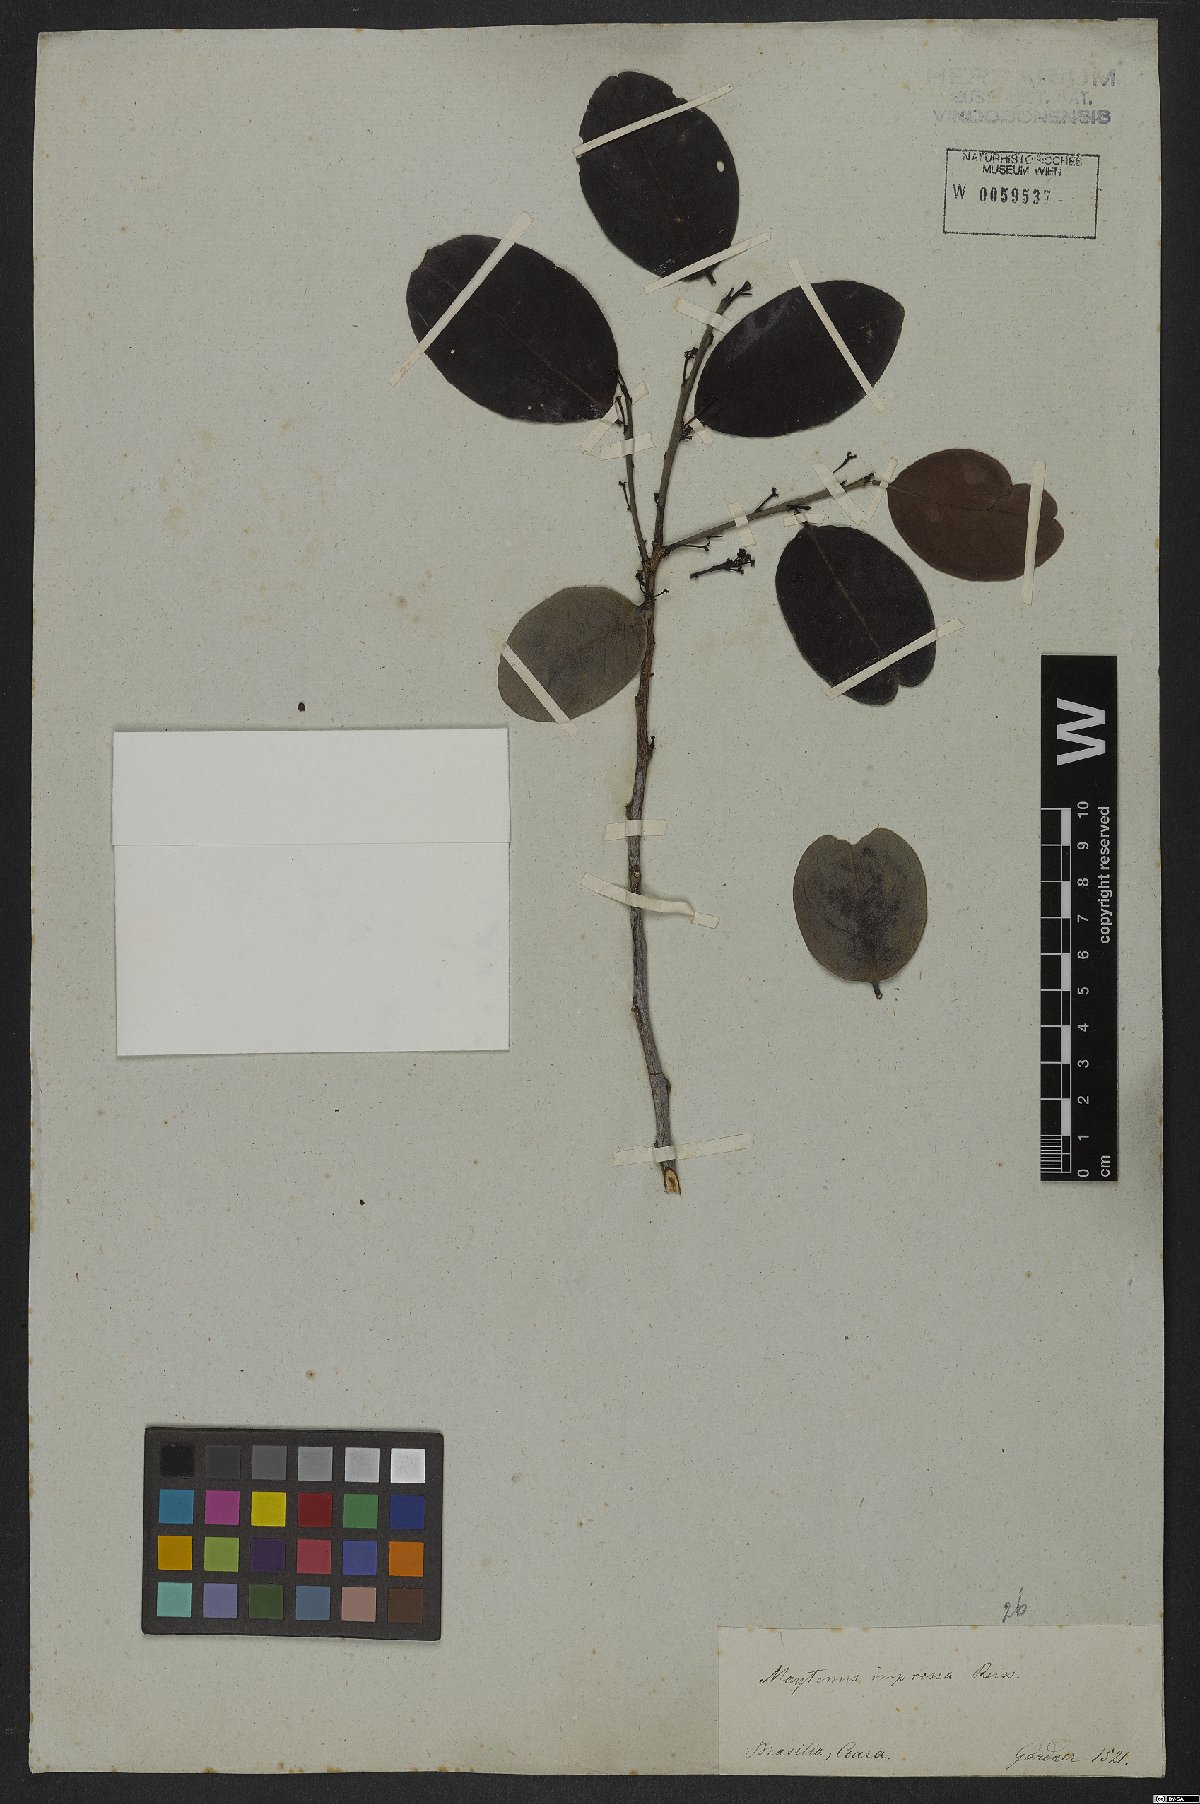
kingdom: Plantae
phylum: Tracheophyta
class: Magnoliopsida
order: Celastrales
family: Celastraceae
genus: Monteverdia
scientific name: Monteverdia obtusifolia
